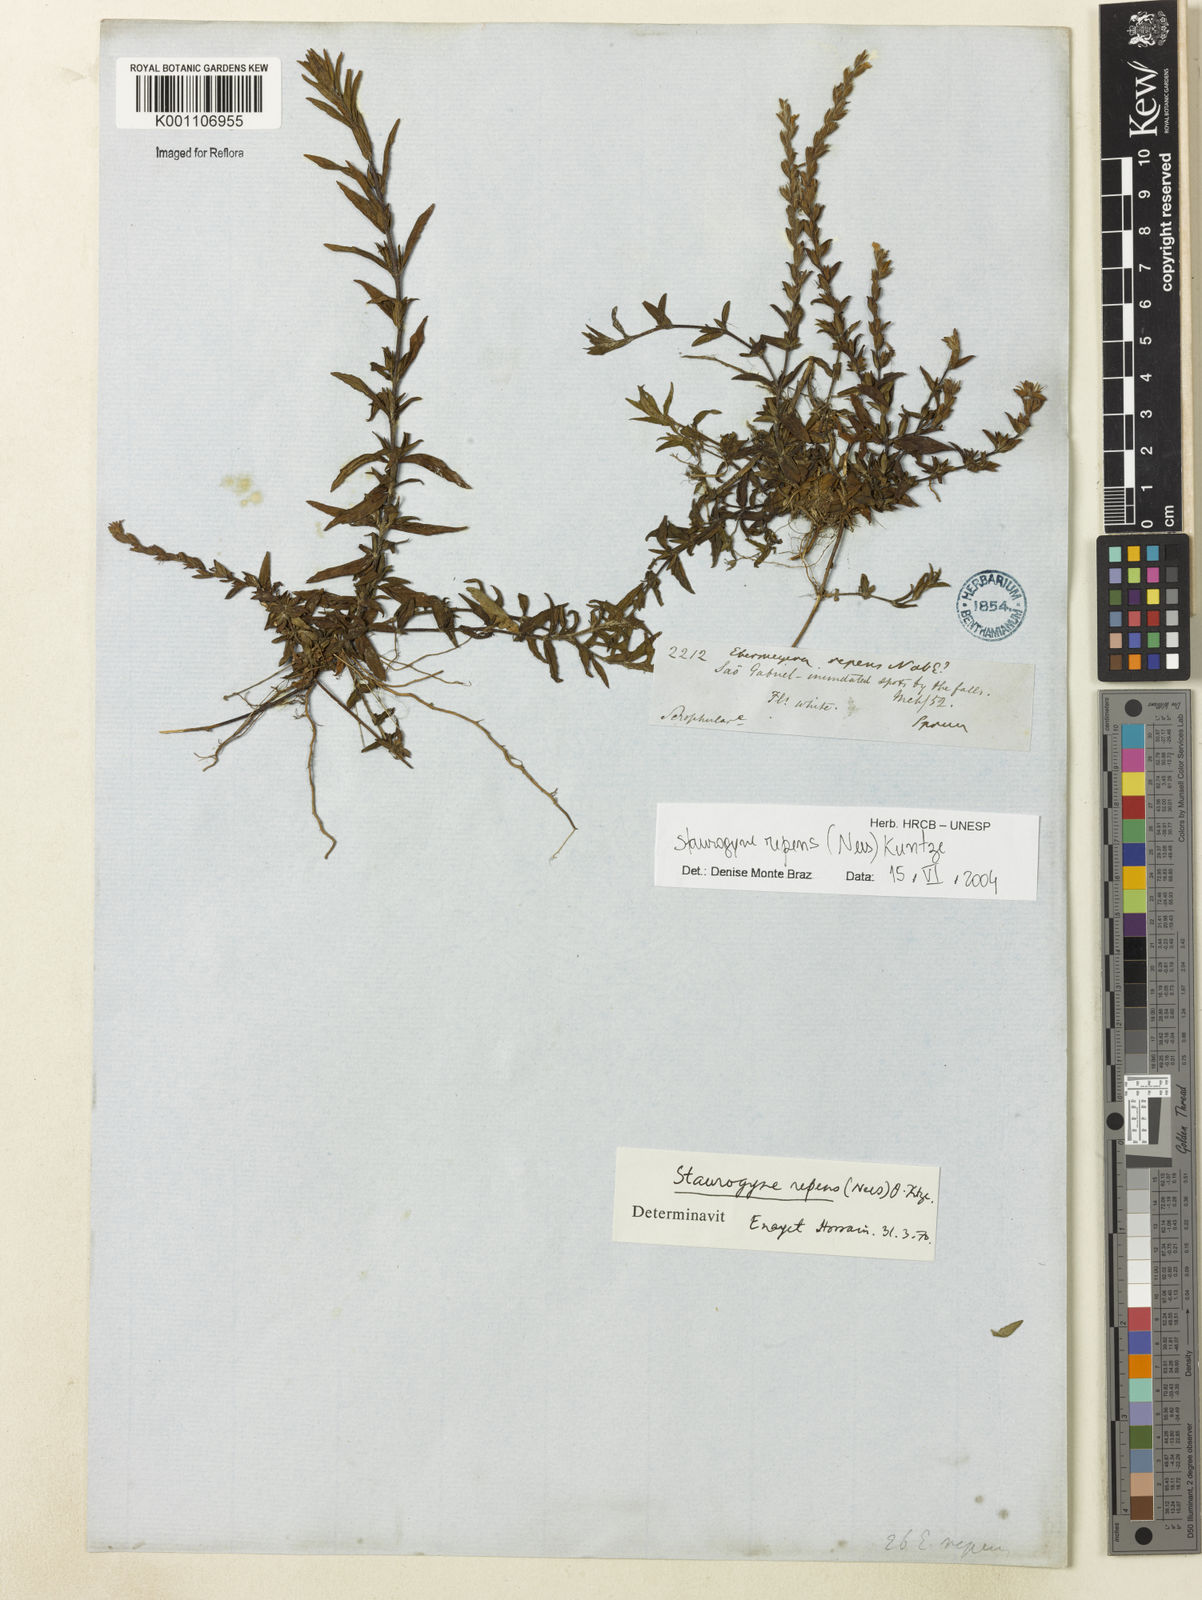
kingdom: Plantae
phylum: Tracheophyta
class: Magnoliopsida
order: Lamiales
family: Acanthaceae
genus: Staurogyne
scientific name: Staurogyne repens
